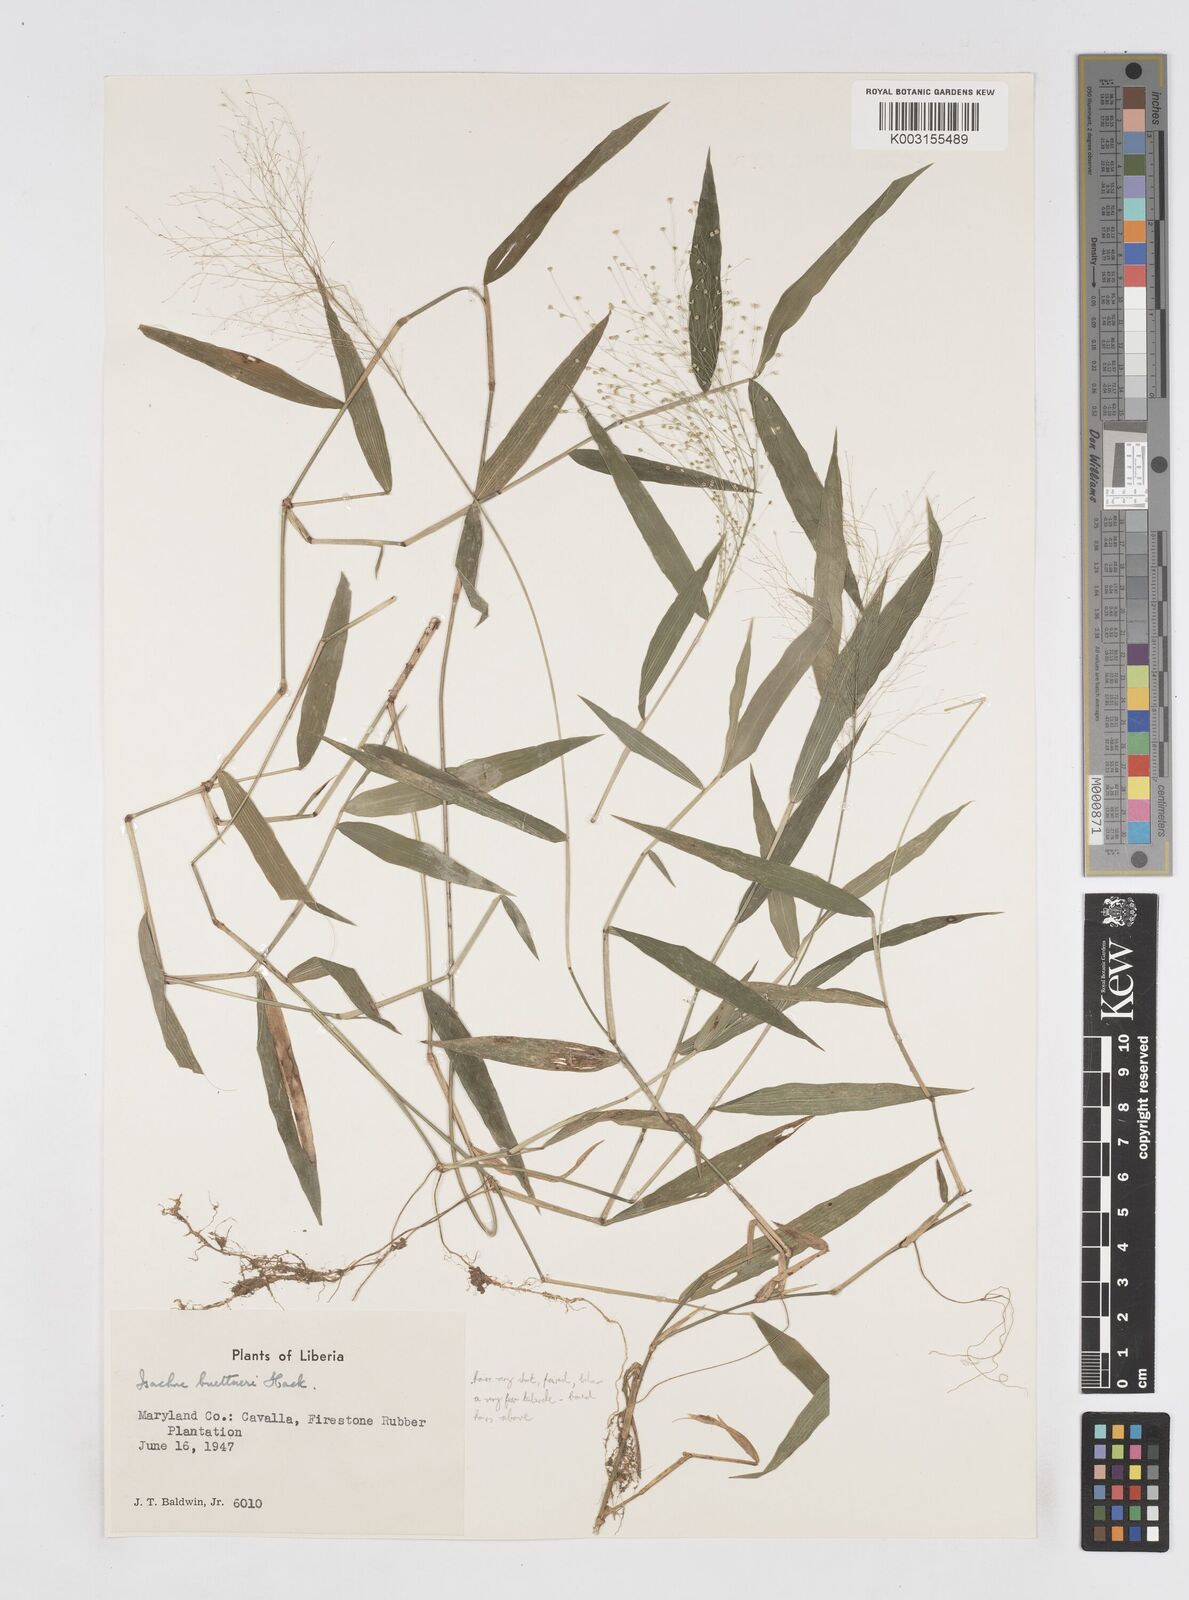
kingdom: Plantae
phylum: Tracheophyta
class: Liliopsida
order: Poales
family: Poaceae
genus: Isachne
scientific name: Isachne albens
